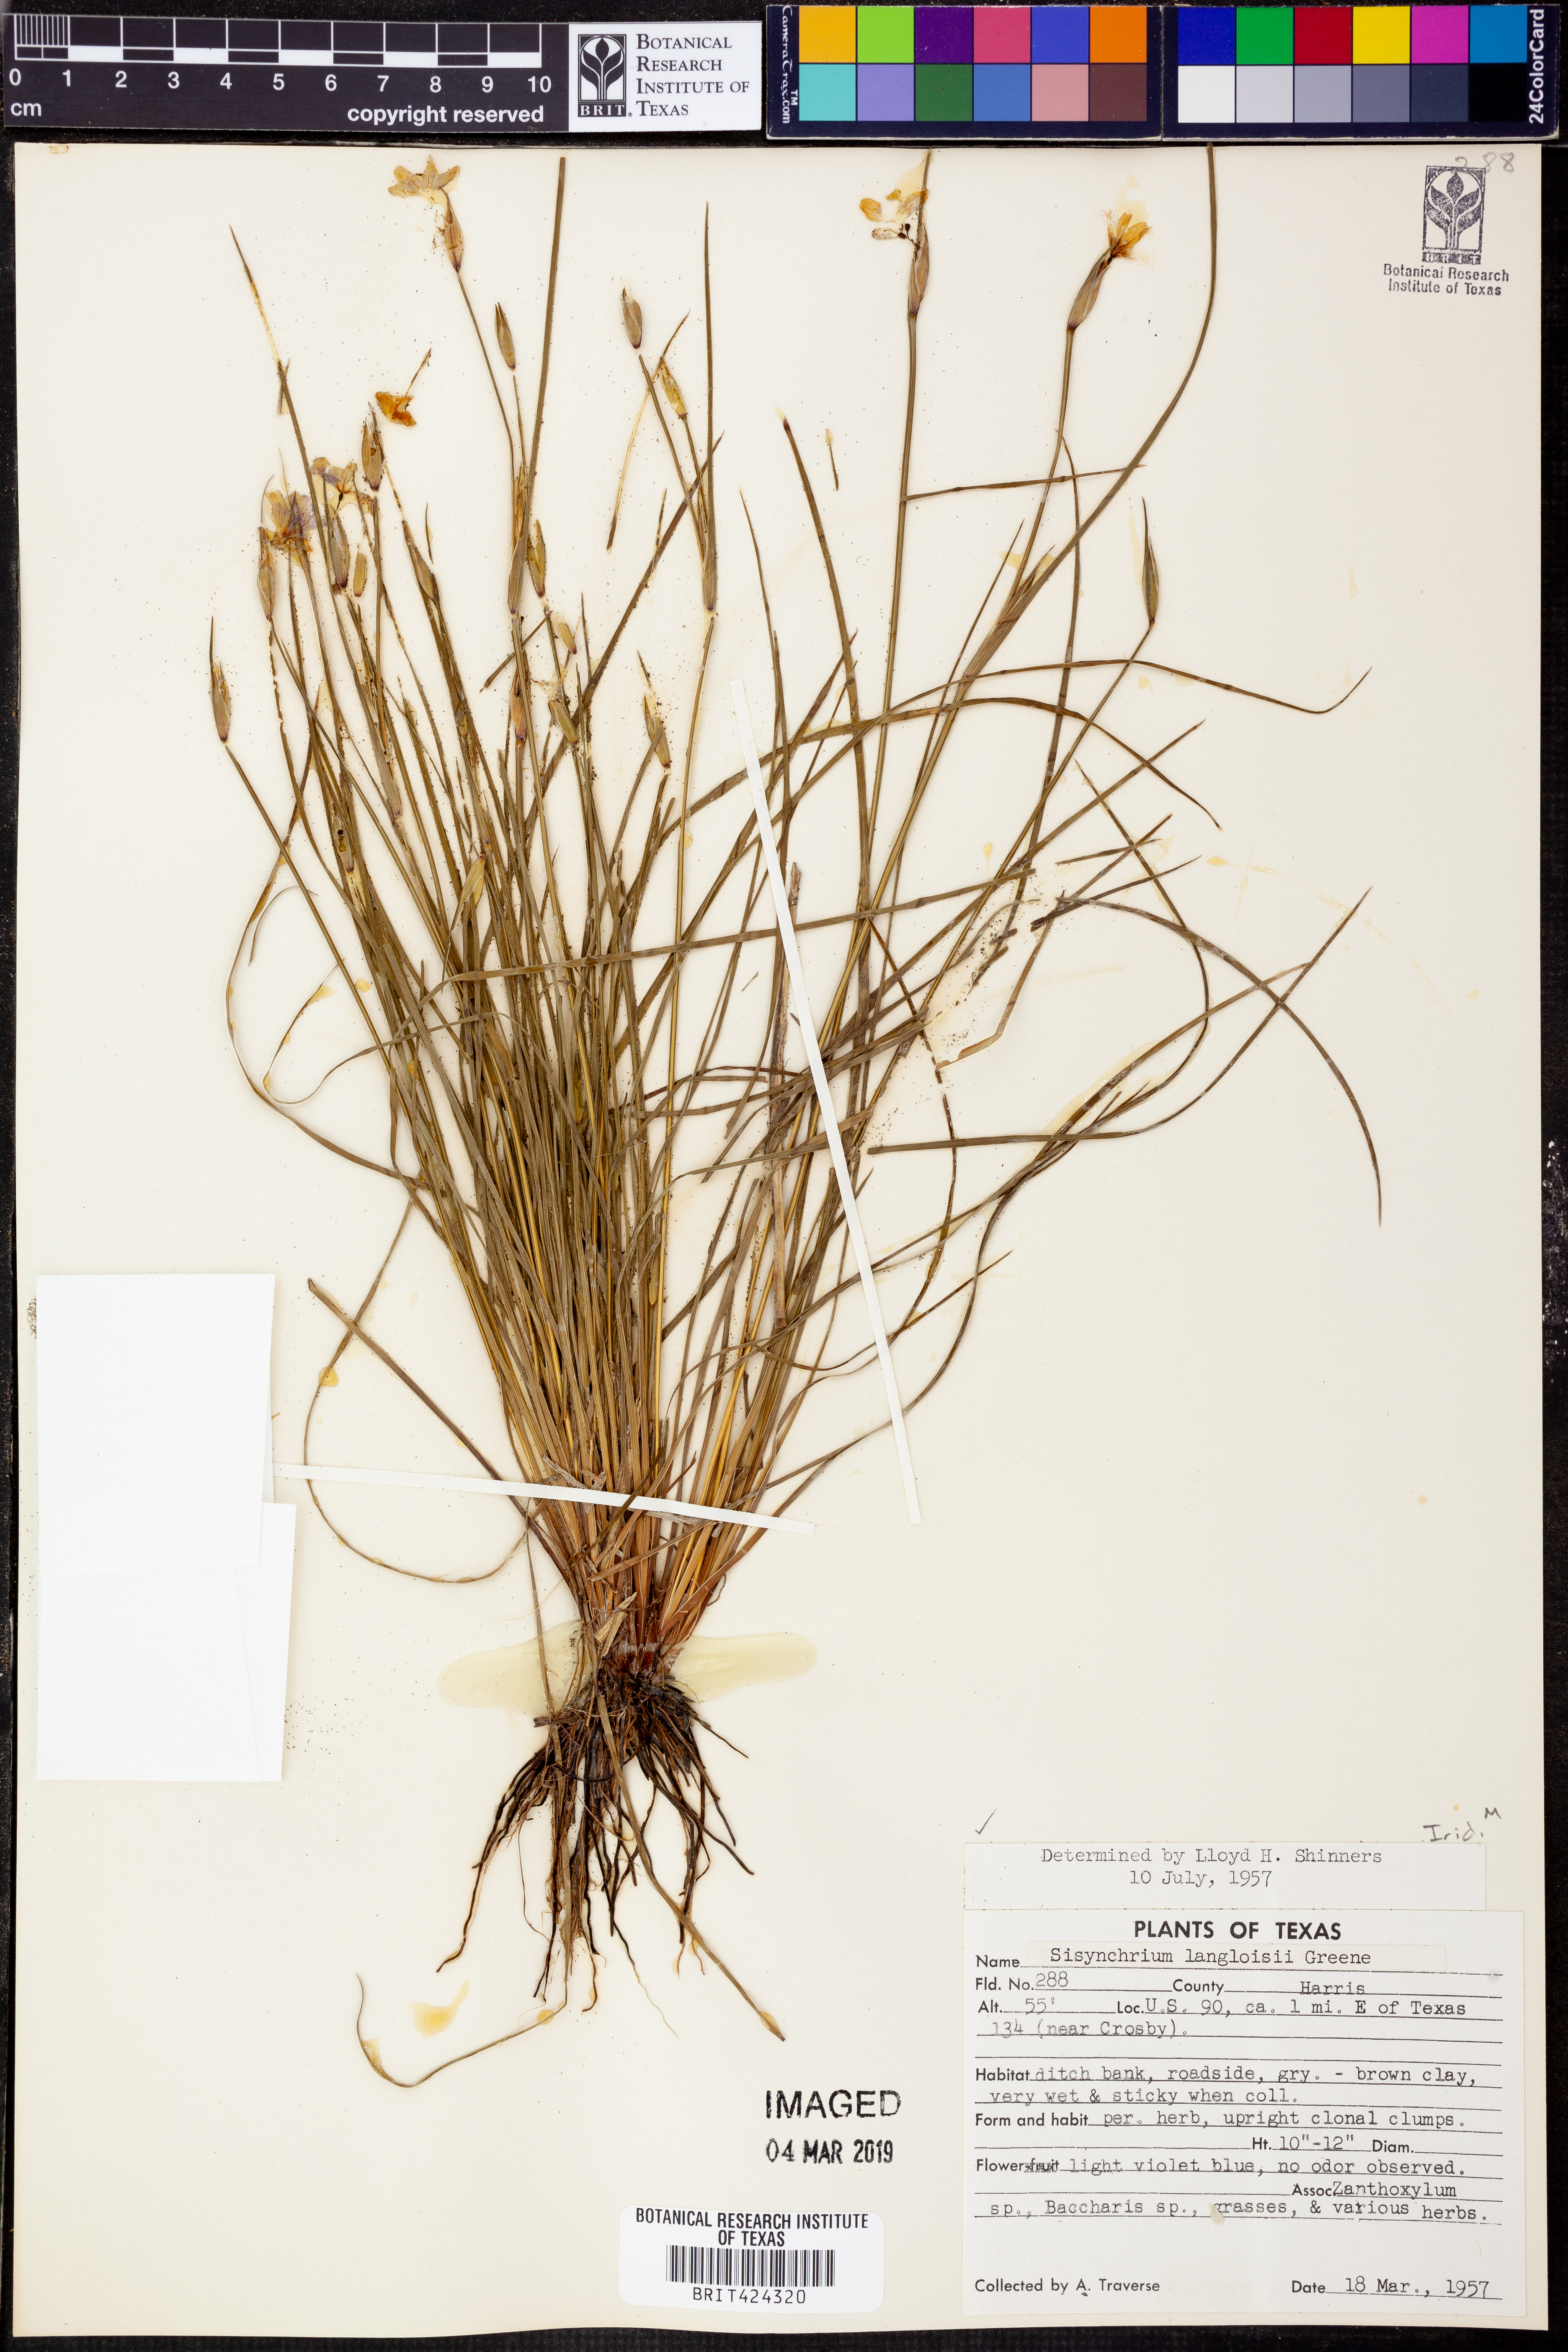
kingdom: Plantae
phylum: Tracheophyta
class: Liliopsida
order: Asparagales
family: Iridaceae
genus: Sisyrinchium
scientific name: Sisyrinchium langloisii
